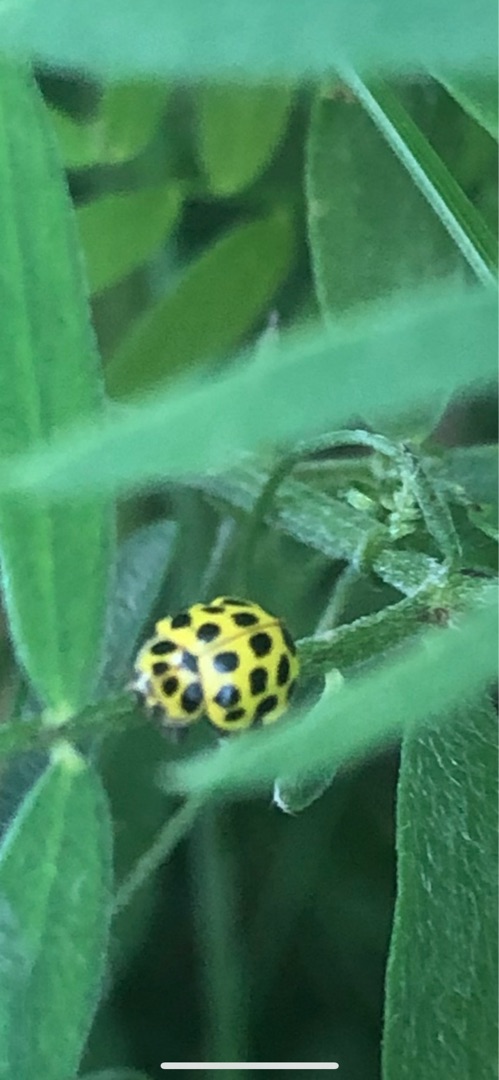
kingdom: Animalia
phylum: Arthropoda
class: Insecta
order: Coleoptera
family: Coccinellidae
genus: Psyllobora
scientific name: Psyllobora vigintiduopunctata
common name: Toogtyveplettet mariehøne
